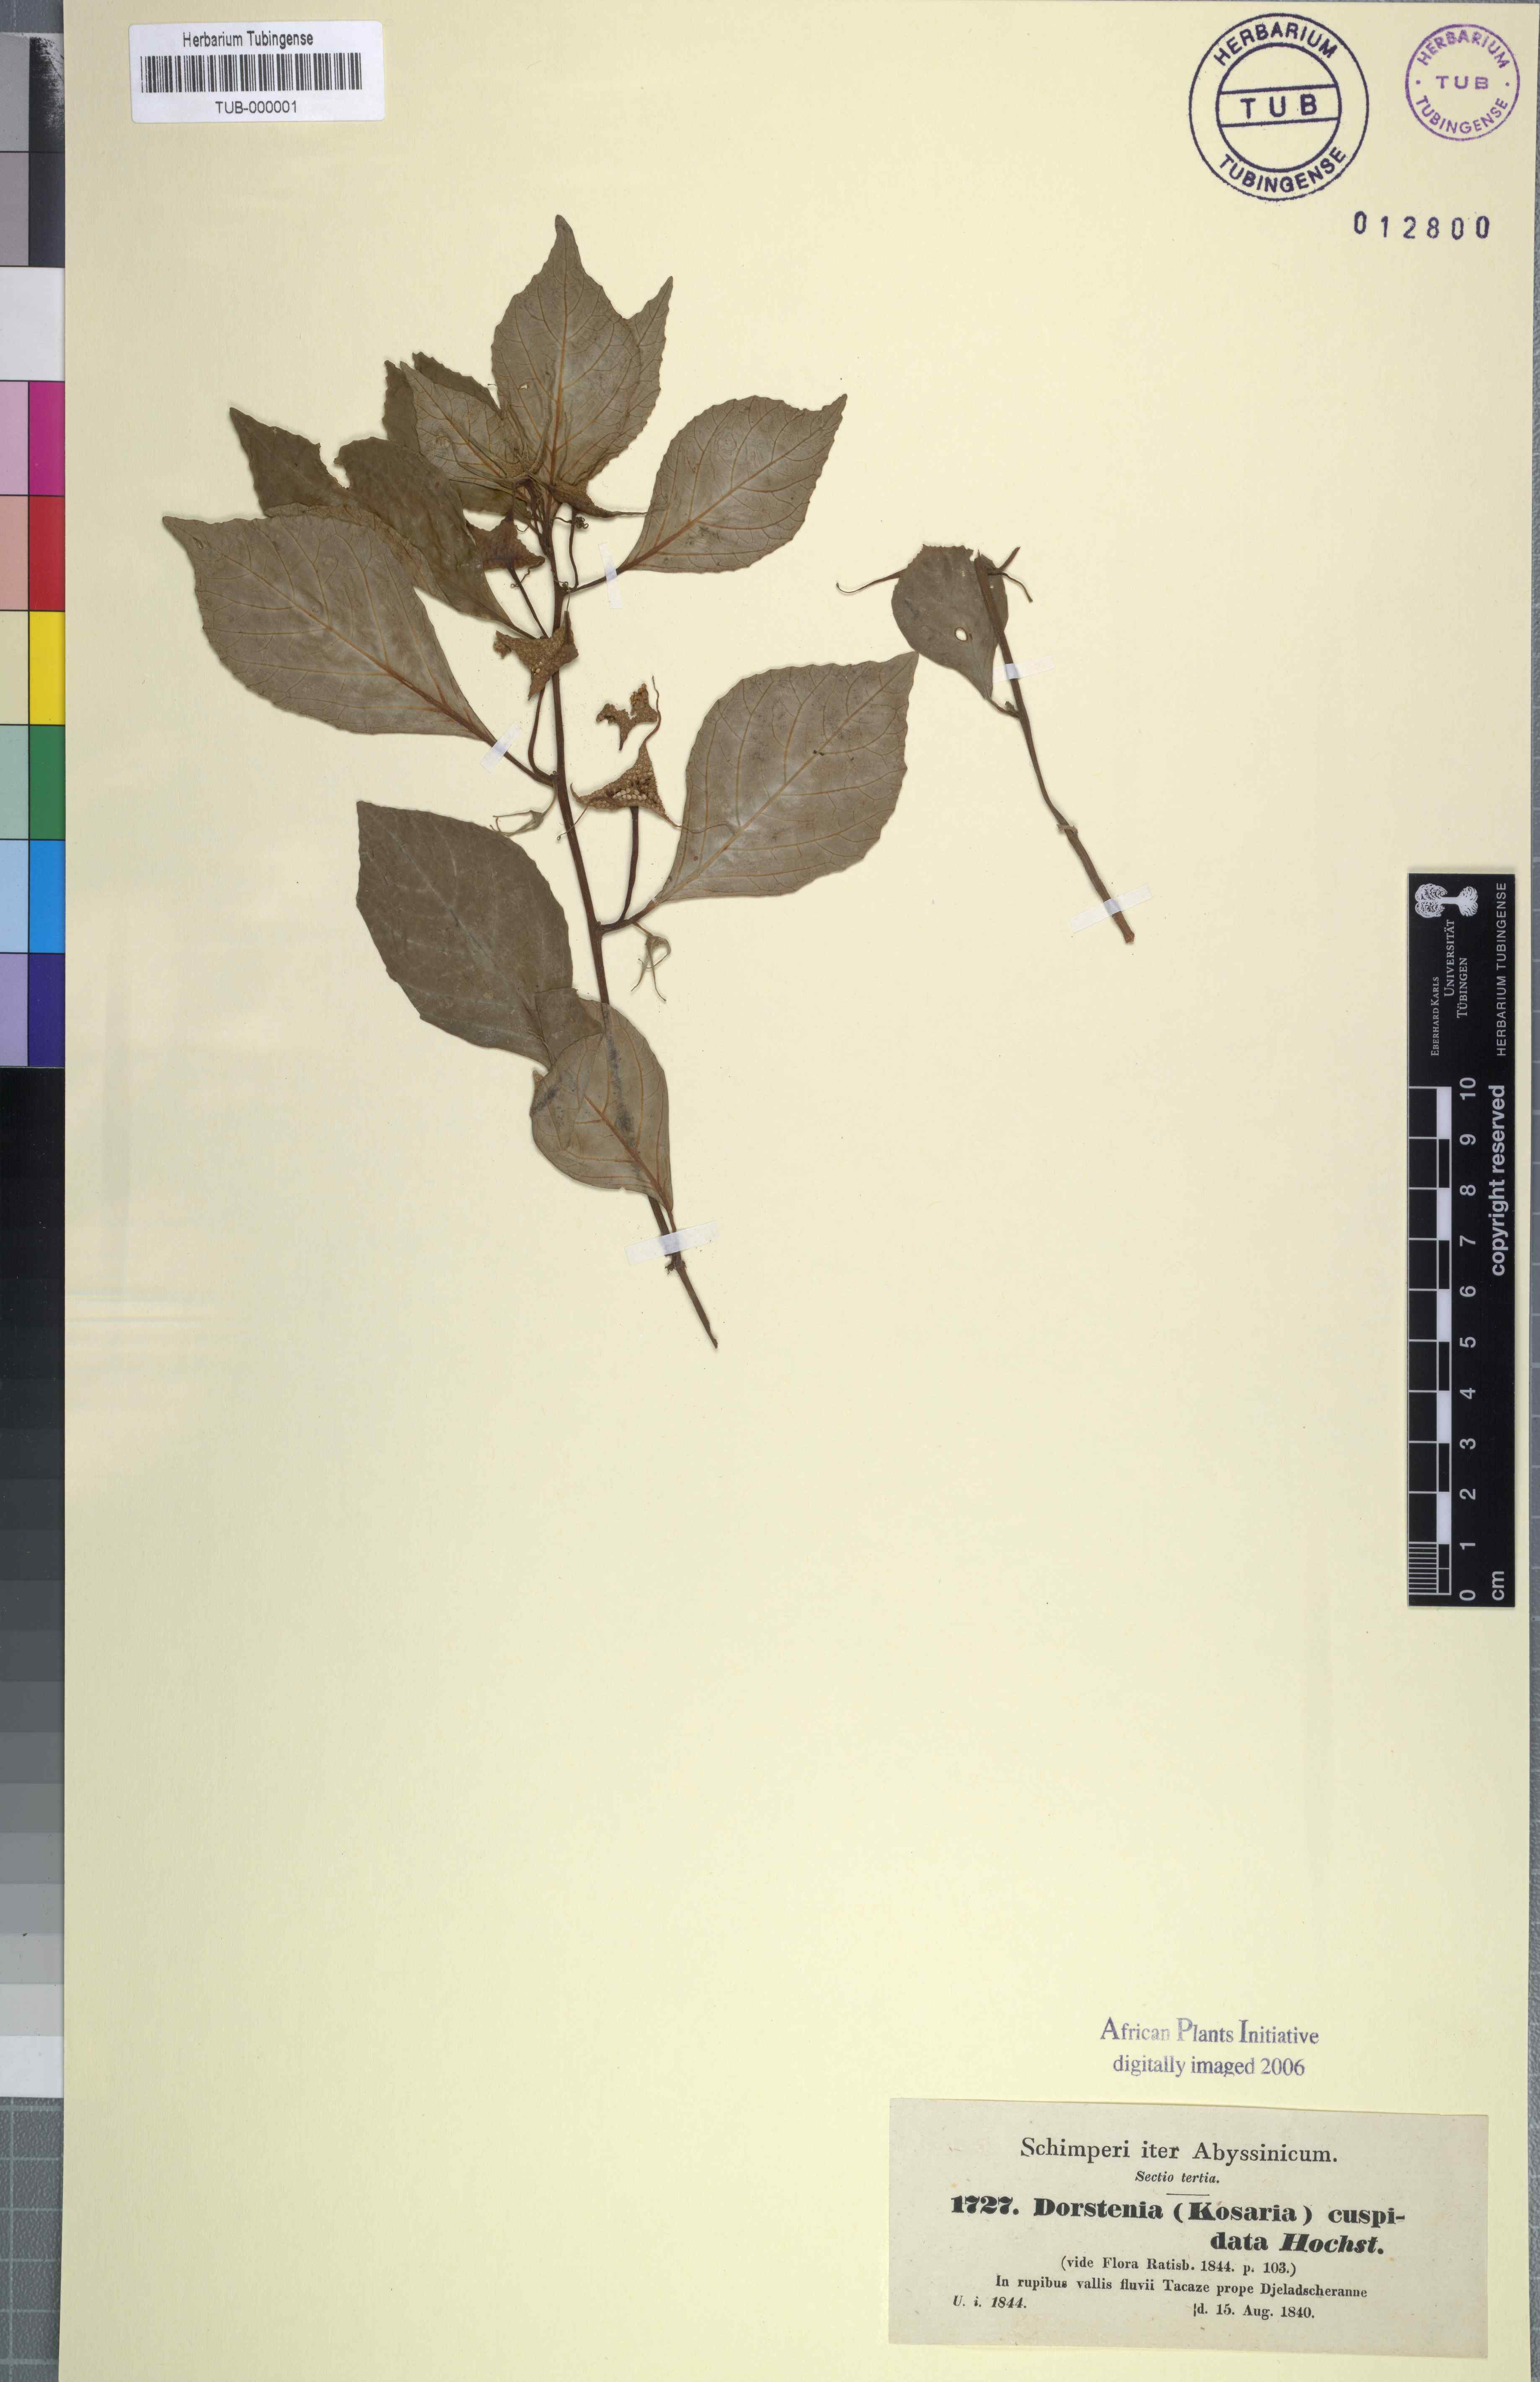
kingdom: Plantae
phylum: Tracheophyta
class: Magnoliopsida
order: Rosales
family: Moraceae
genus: Dorstenia
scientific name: Dorstenia cuspidata
